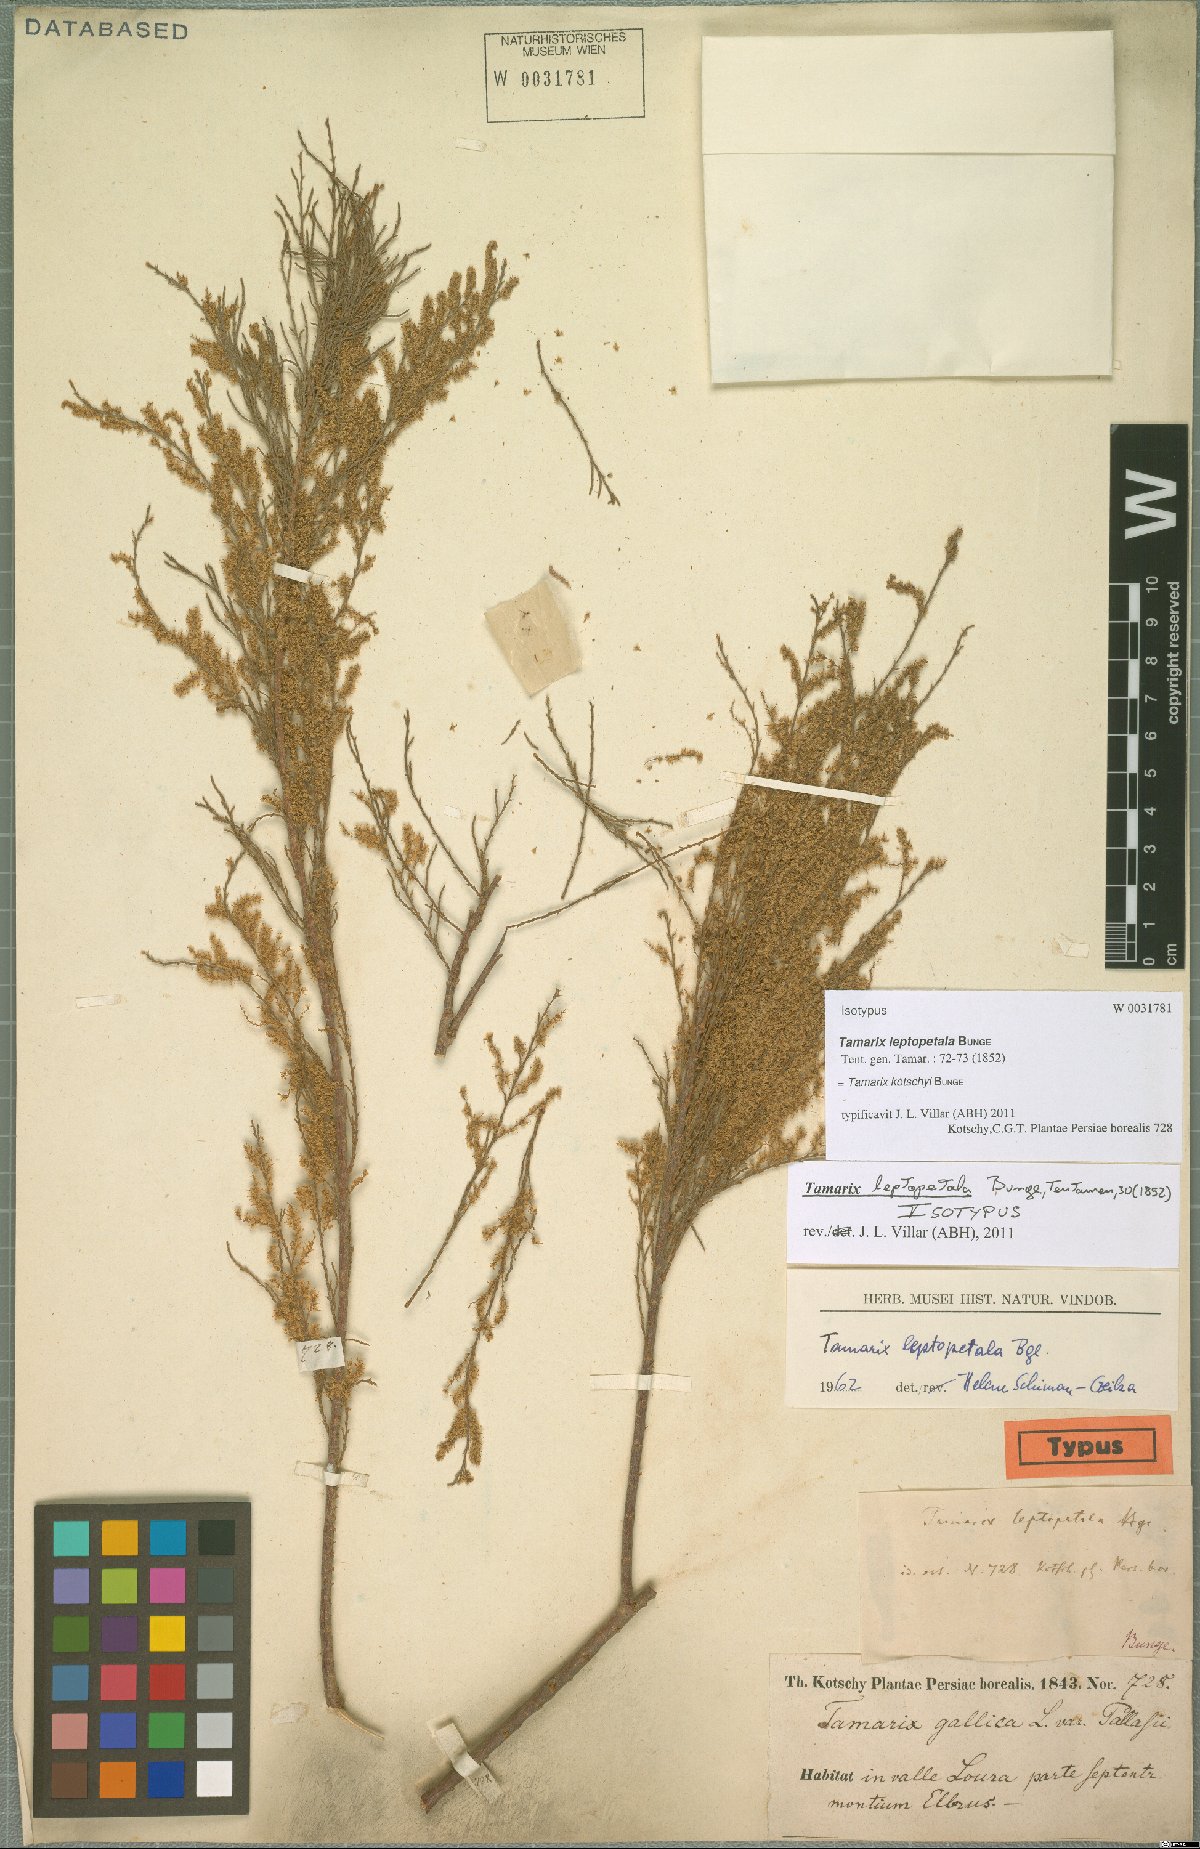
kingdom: Plantae
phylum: Tracheophyta
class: Magnoliopsida
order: Caryophyllales
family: Tamaricaceae
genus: Tamarix
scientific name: Tamarix leptopetala
